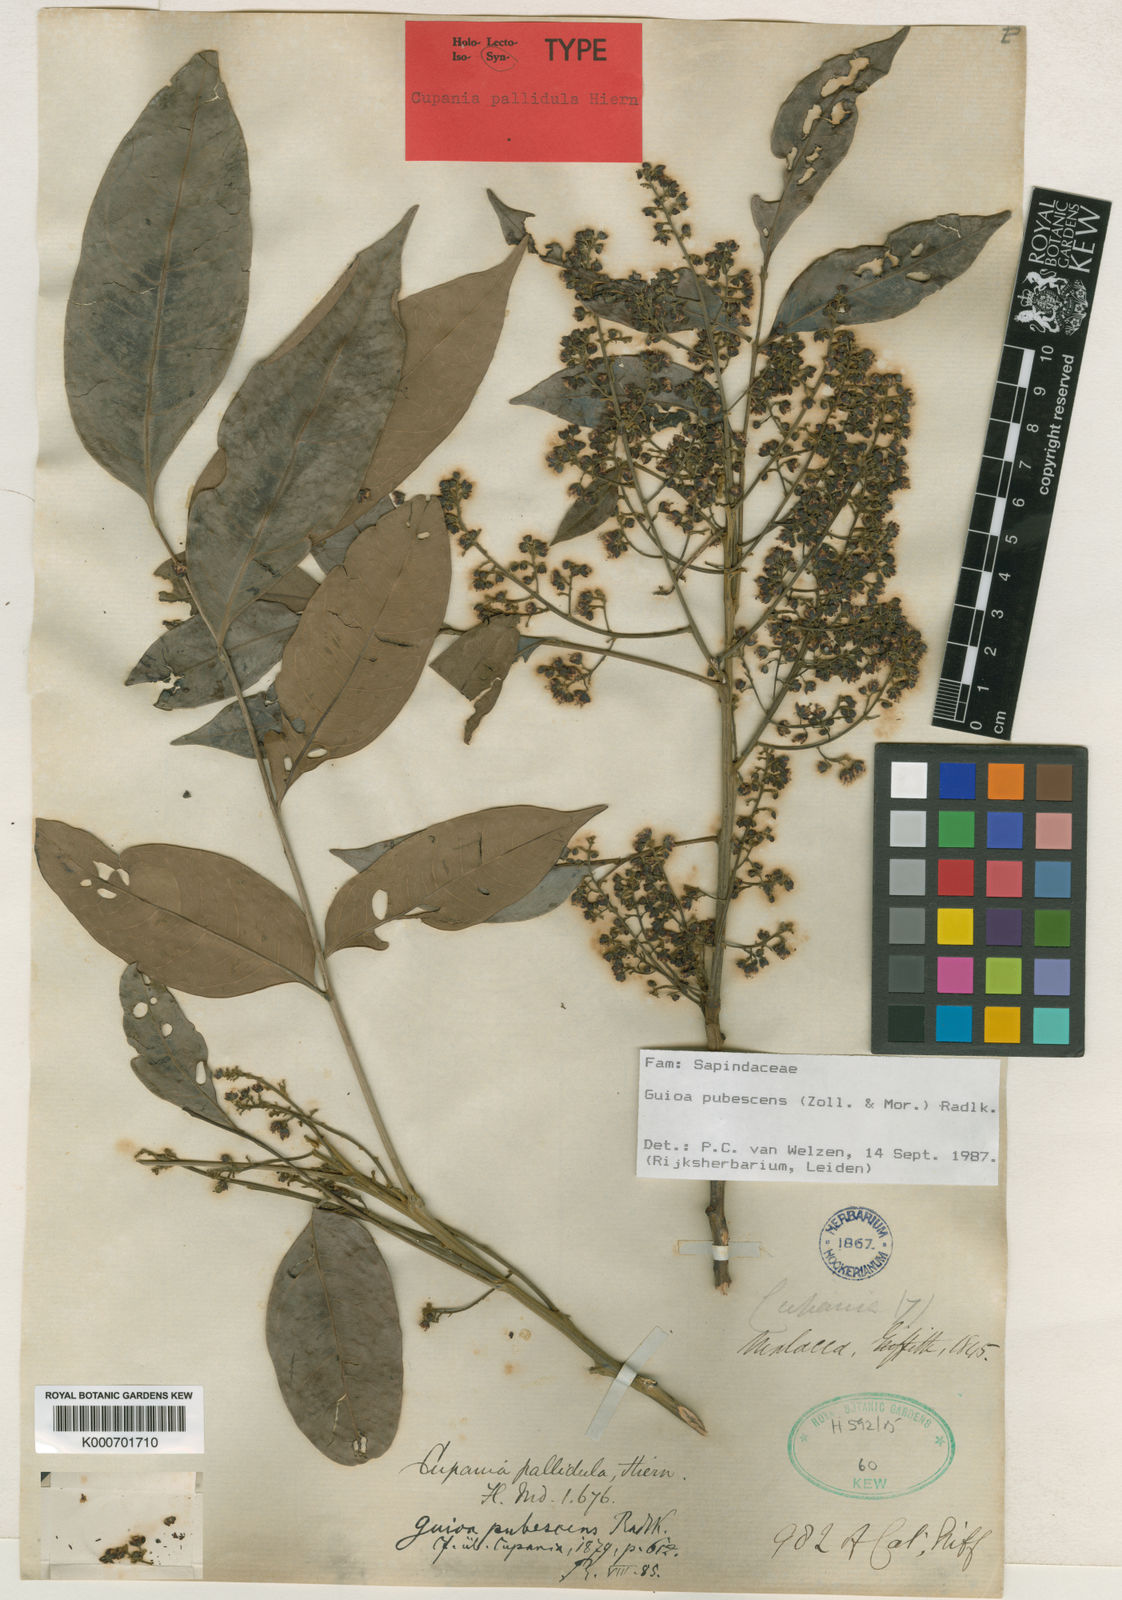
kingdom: Plantae
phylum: Tracheophyta
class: Magnoliopsida
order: Sapindales
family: Sapindaceae
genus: Guioa
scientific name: Guioa pubescens
